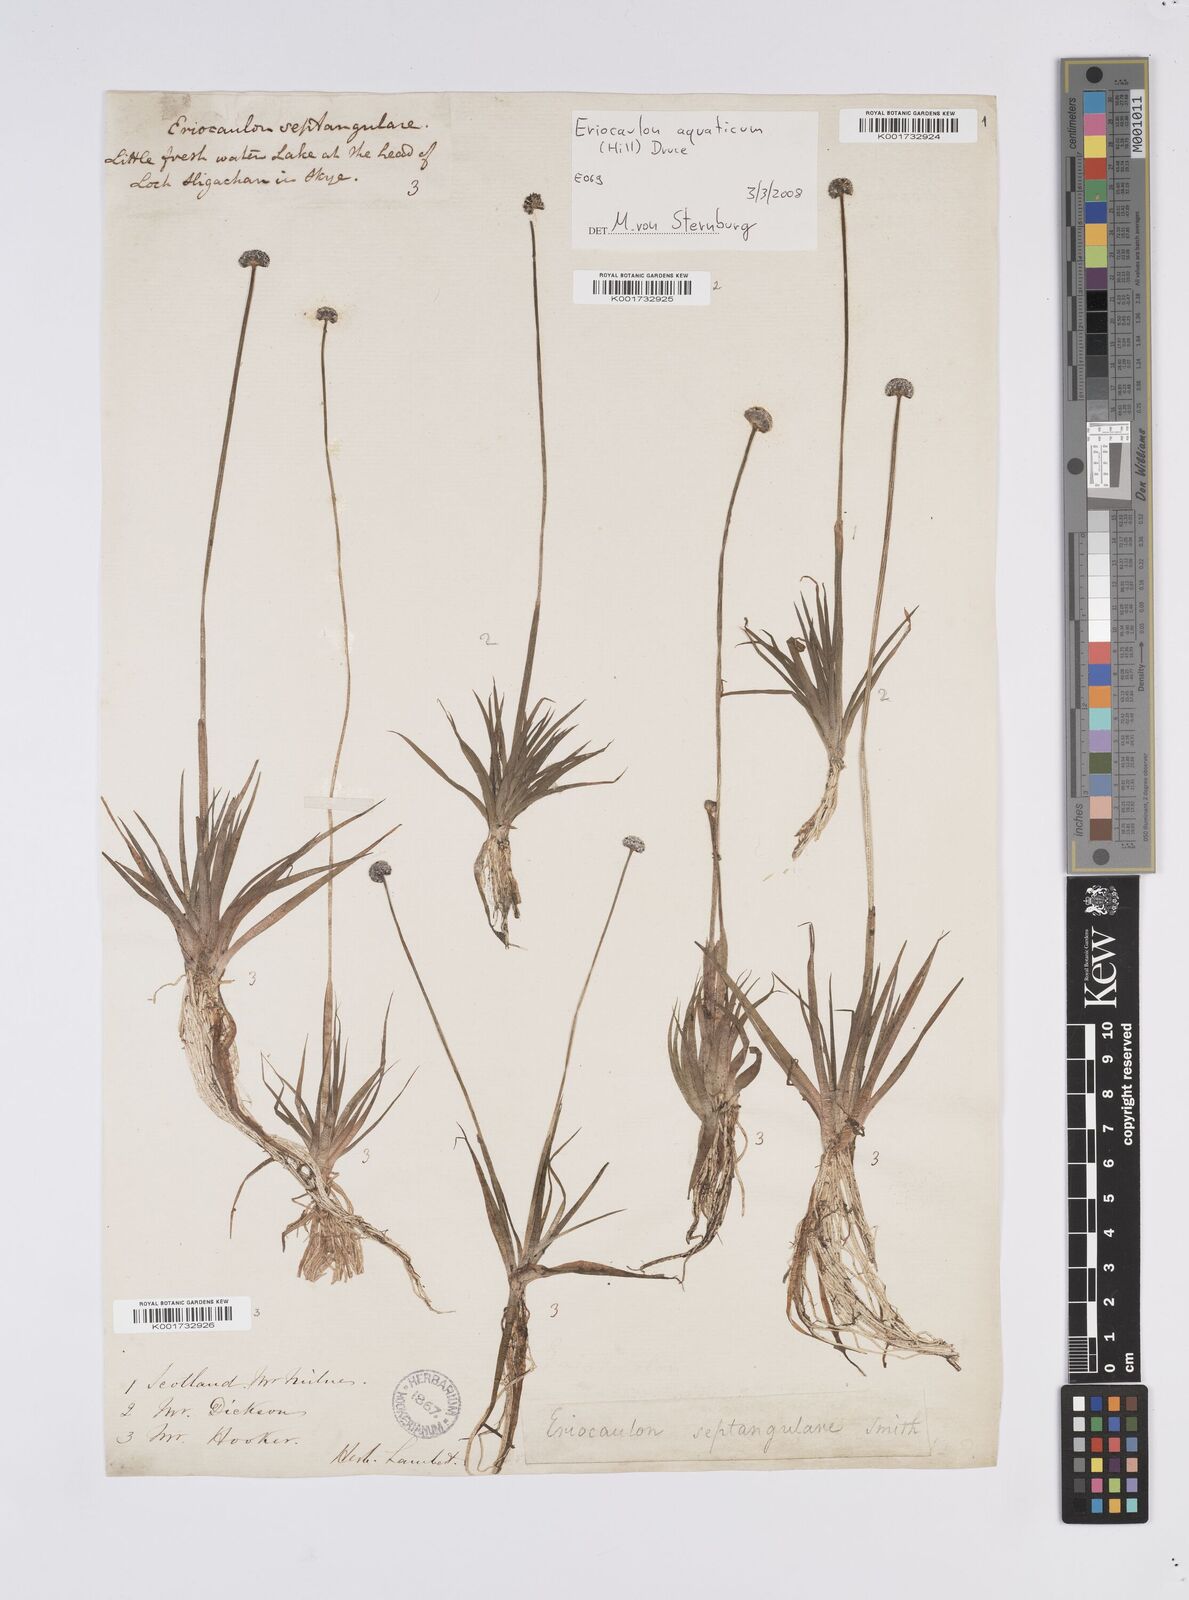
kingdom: Plantae
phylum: Tracheophyta
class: Liliopsida
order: Poales
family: Eriocaulaceae
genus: Eriocaulon
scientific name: Eriocaulon aquaticum
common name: Pipewort
